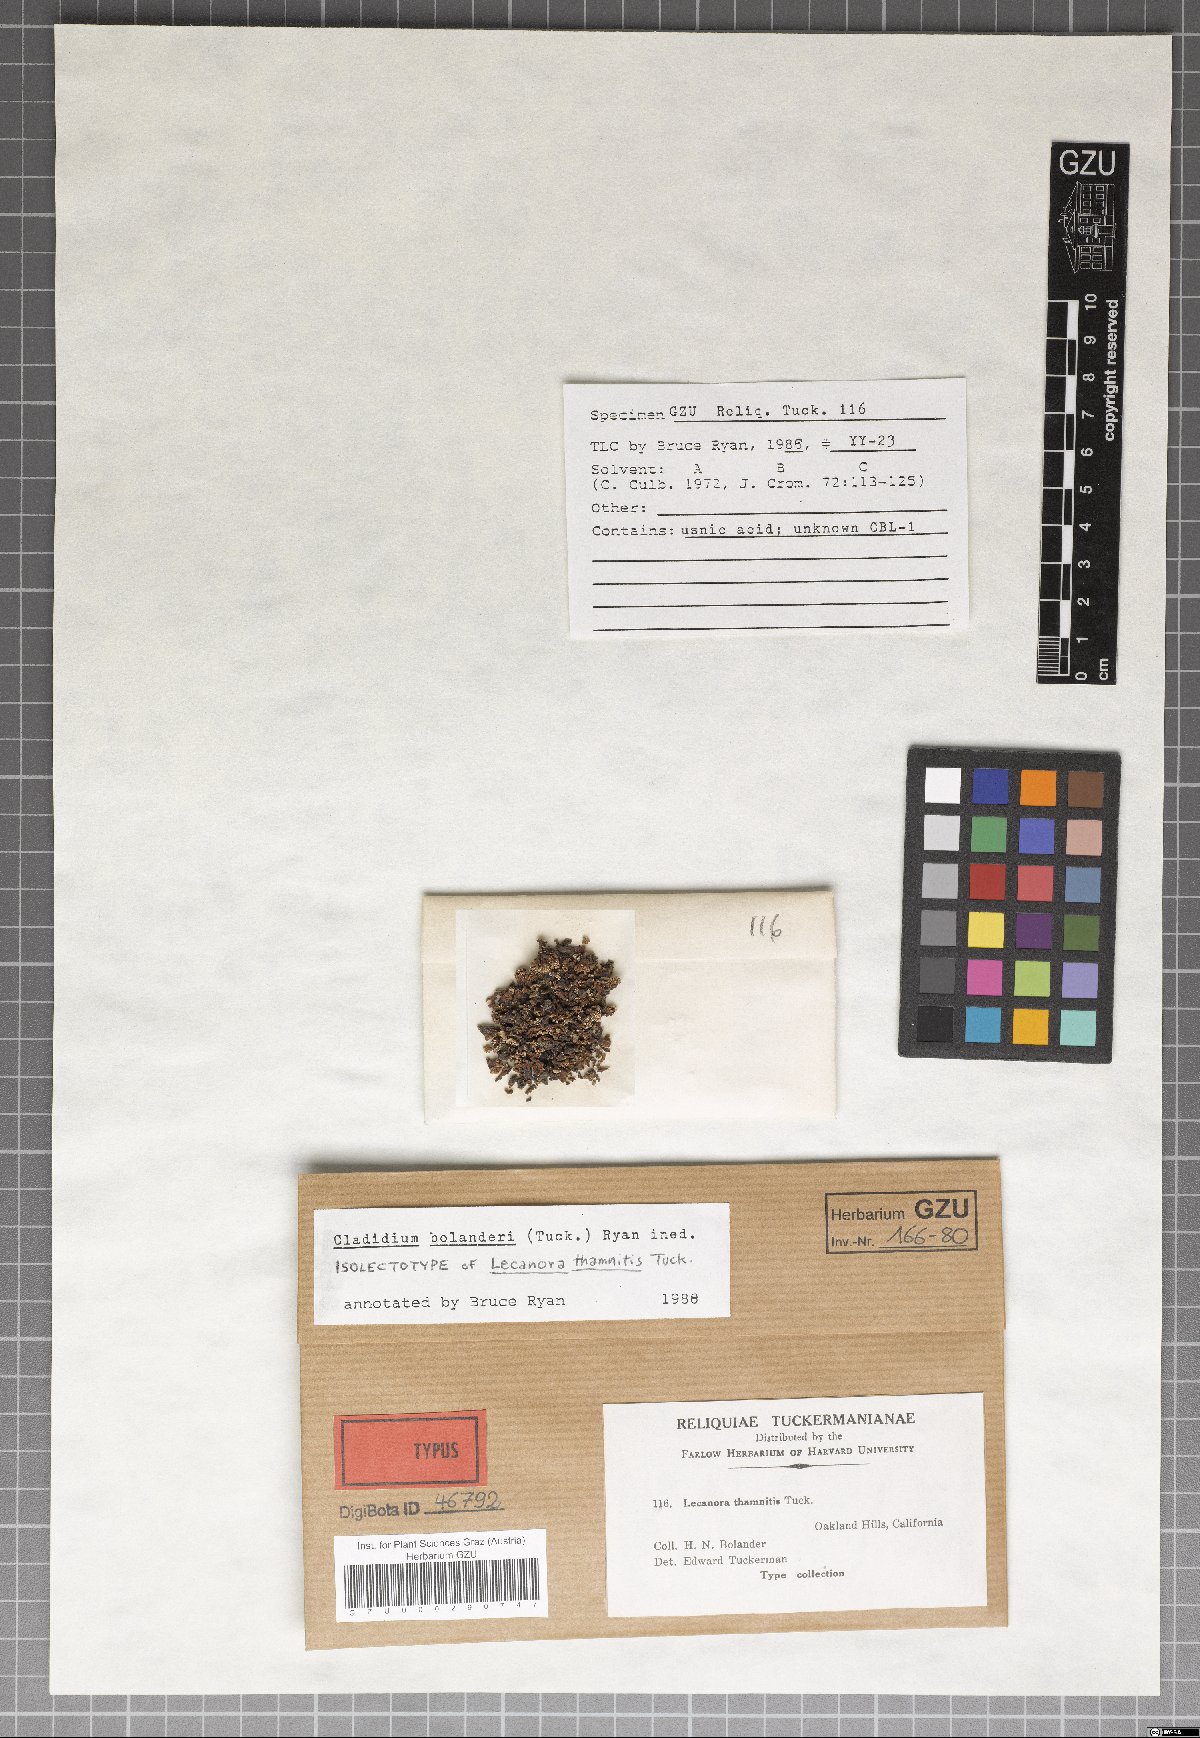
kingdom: Fungi
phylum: Ascomycota
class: Lecanoromycetes
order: Lecanorales
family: Lecanoraceae
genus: Cladidium
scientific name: Cladidium thamnitis
